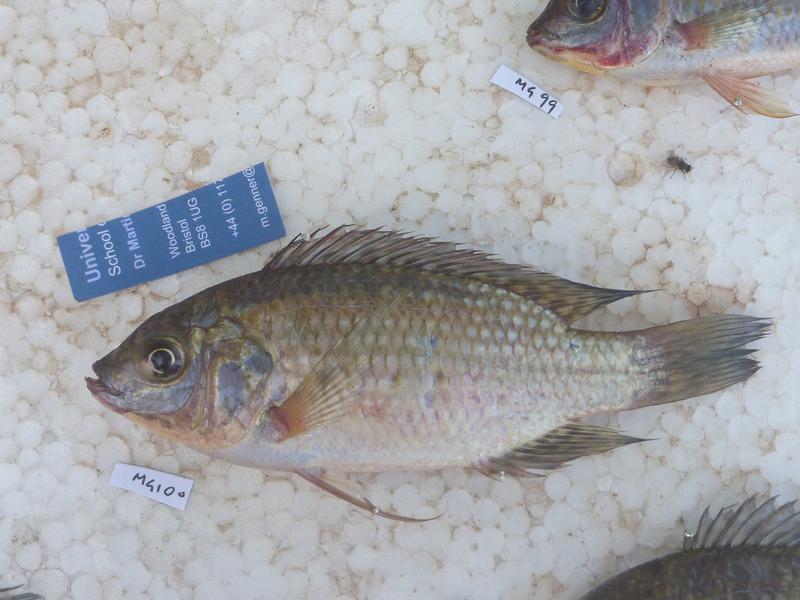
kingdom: Animalia
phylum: Chordata
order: Perciformes
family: Cichlidae
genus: Oreochromis
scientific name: Oreochromis leucostictus
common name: Blue spotted tilapia
